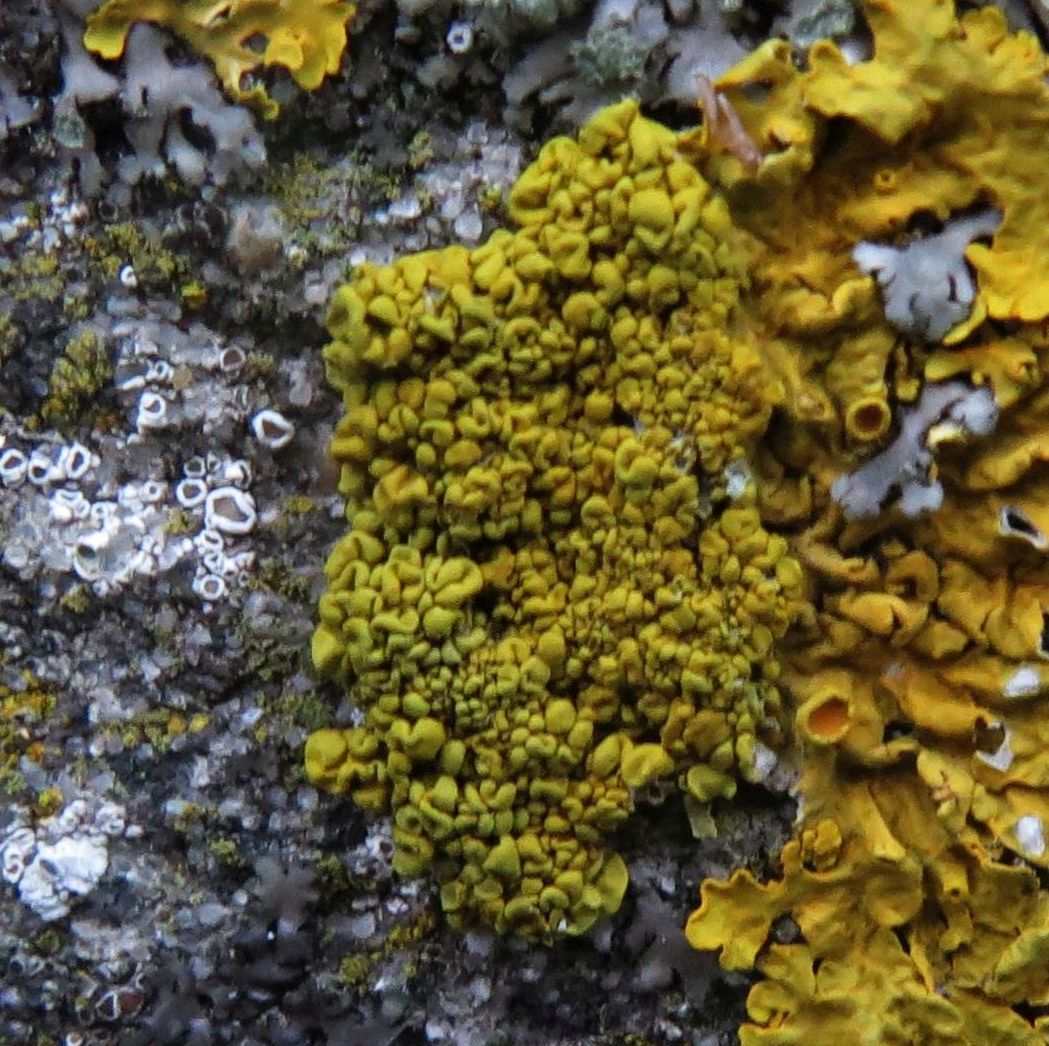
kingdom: Fungi
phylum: Ascomycota
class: Lecanoromycetes
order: Teloschistales
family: Teloschistaceae
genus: Xanthoria
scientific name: Xanthoria calcicola
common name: vortet væggelav
